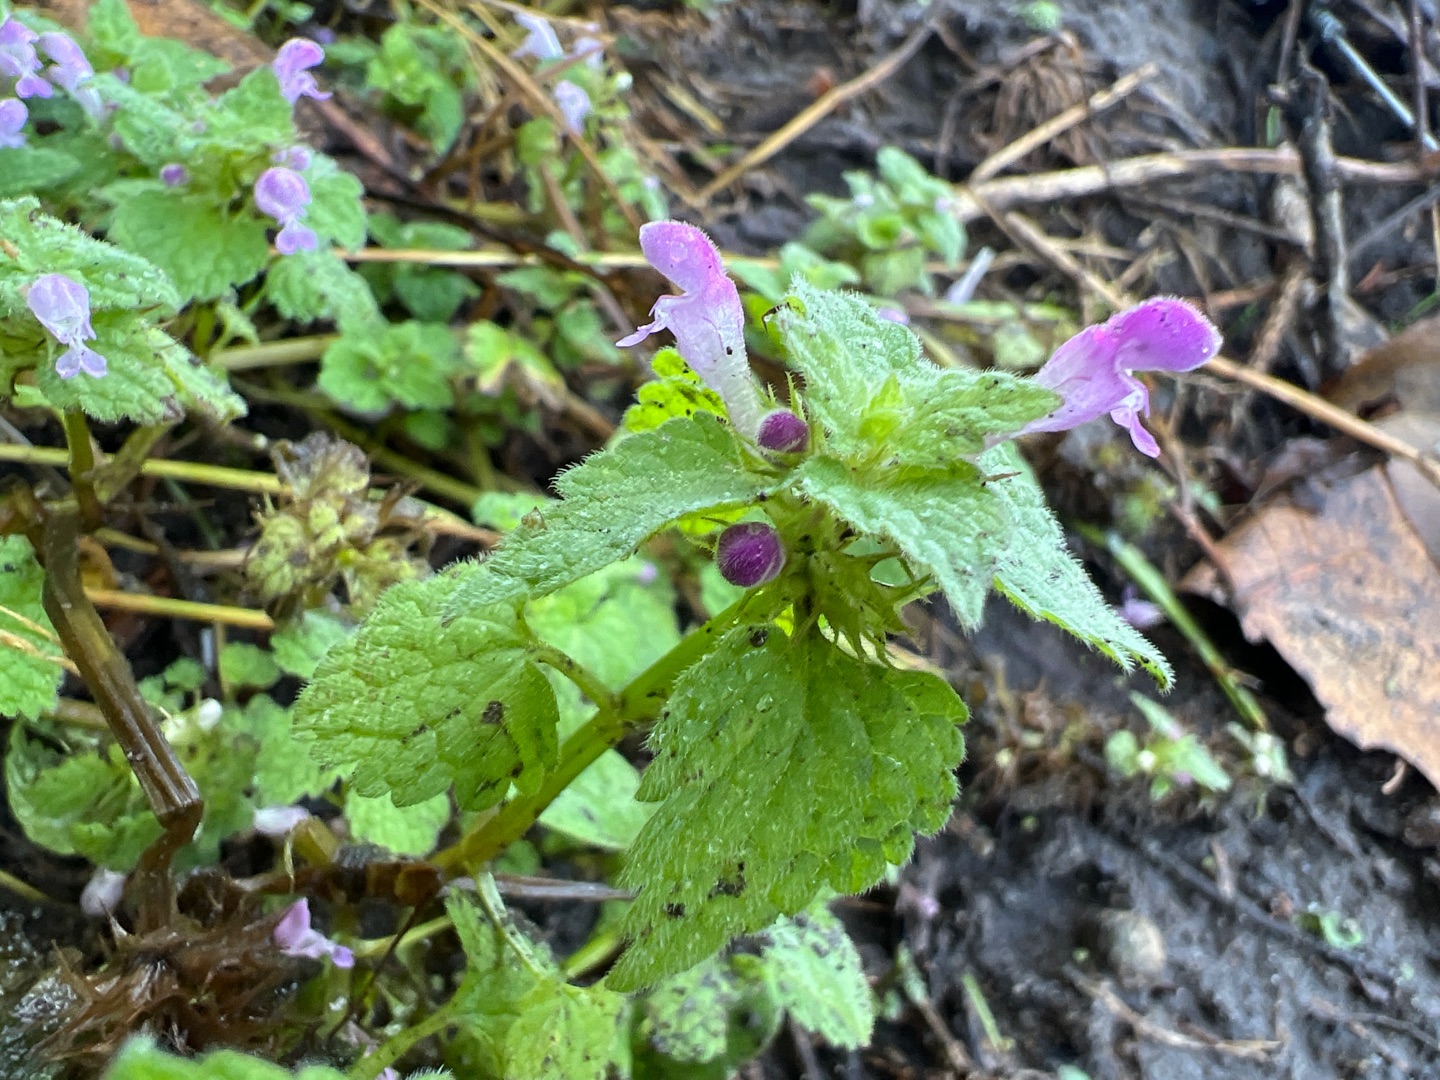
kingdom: Plantae
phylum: Tracheophyta
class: Magnoliopsida
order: Lamiales
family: Lamiaceae
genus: Lamium
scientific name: Lamium purpureum
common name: Rød tvetand
